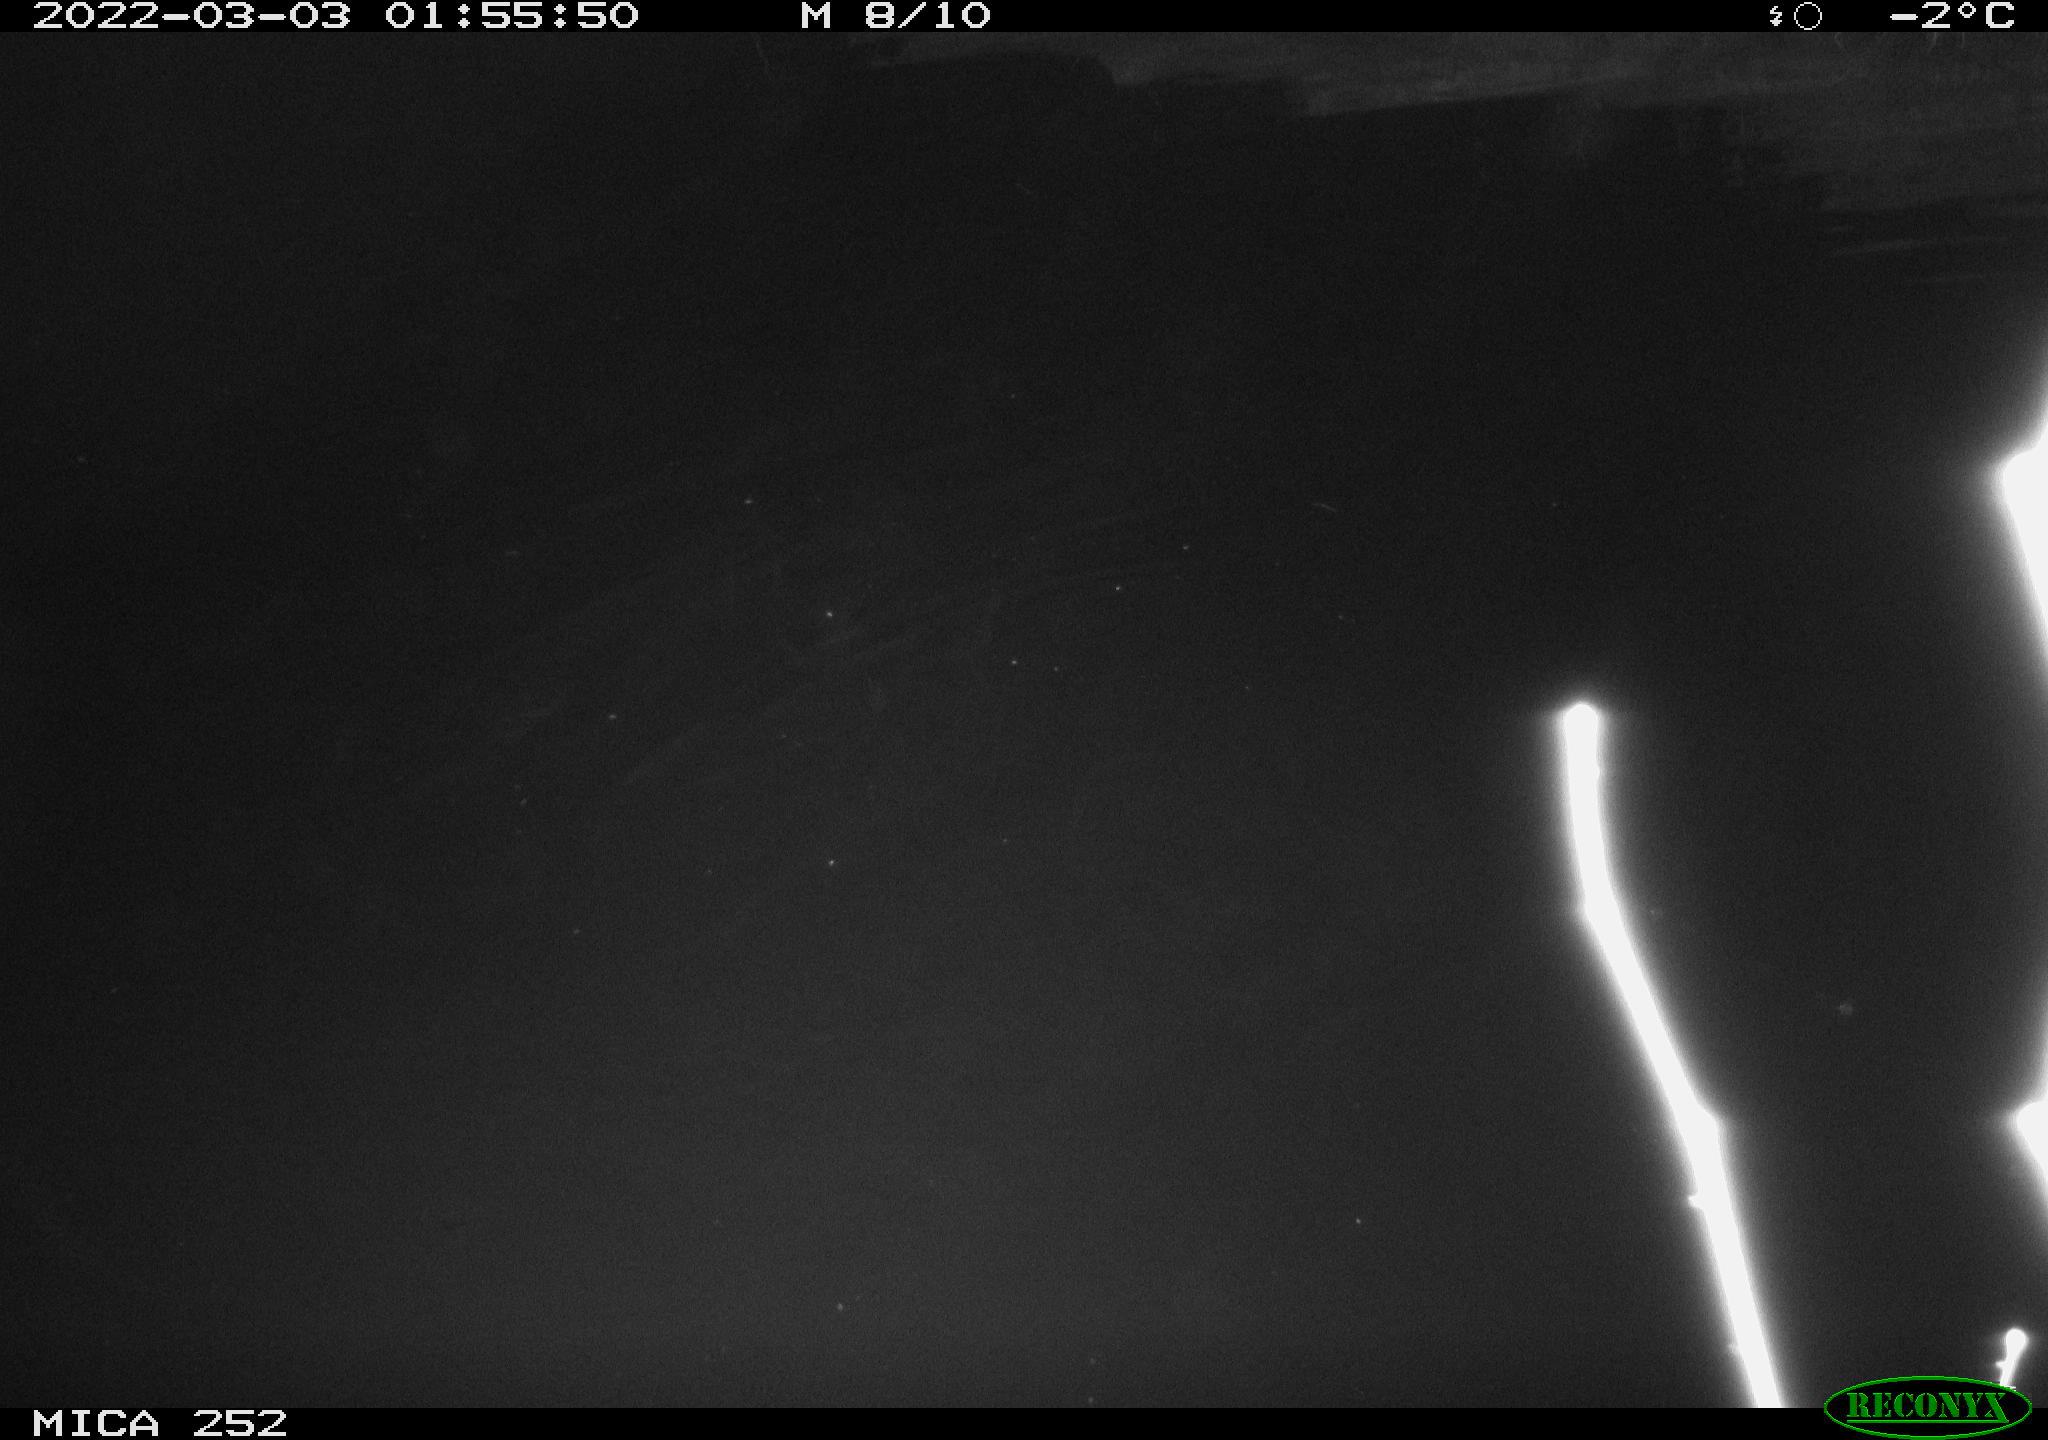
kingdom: Animalia
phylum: Chordata
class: Mammalia
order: Rodentia
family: Castoridae
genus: Castor
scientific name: Castor fiber
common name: Eurasian beaver
